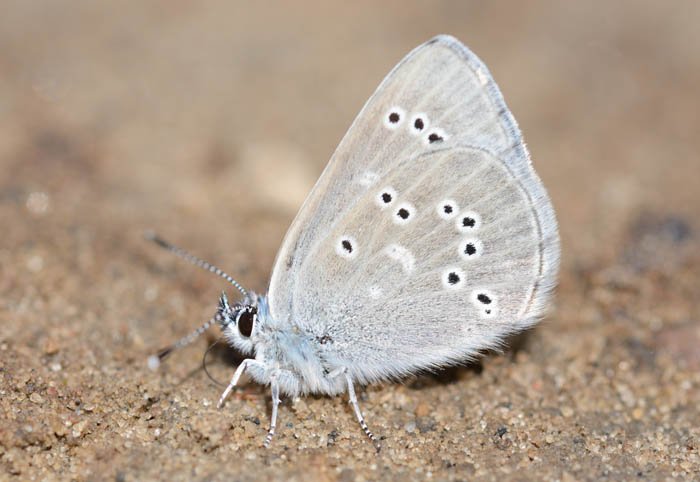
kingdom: Animalia
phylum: Arthropoda
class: Insecta
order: Lepidoptera
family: Lycaenidae
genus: Glaucopsyche
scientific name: Glaucopsyche lygdamus
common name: Silvery Blue
